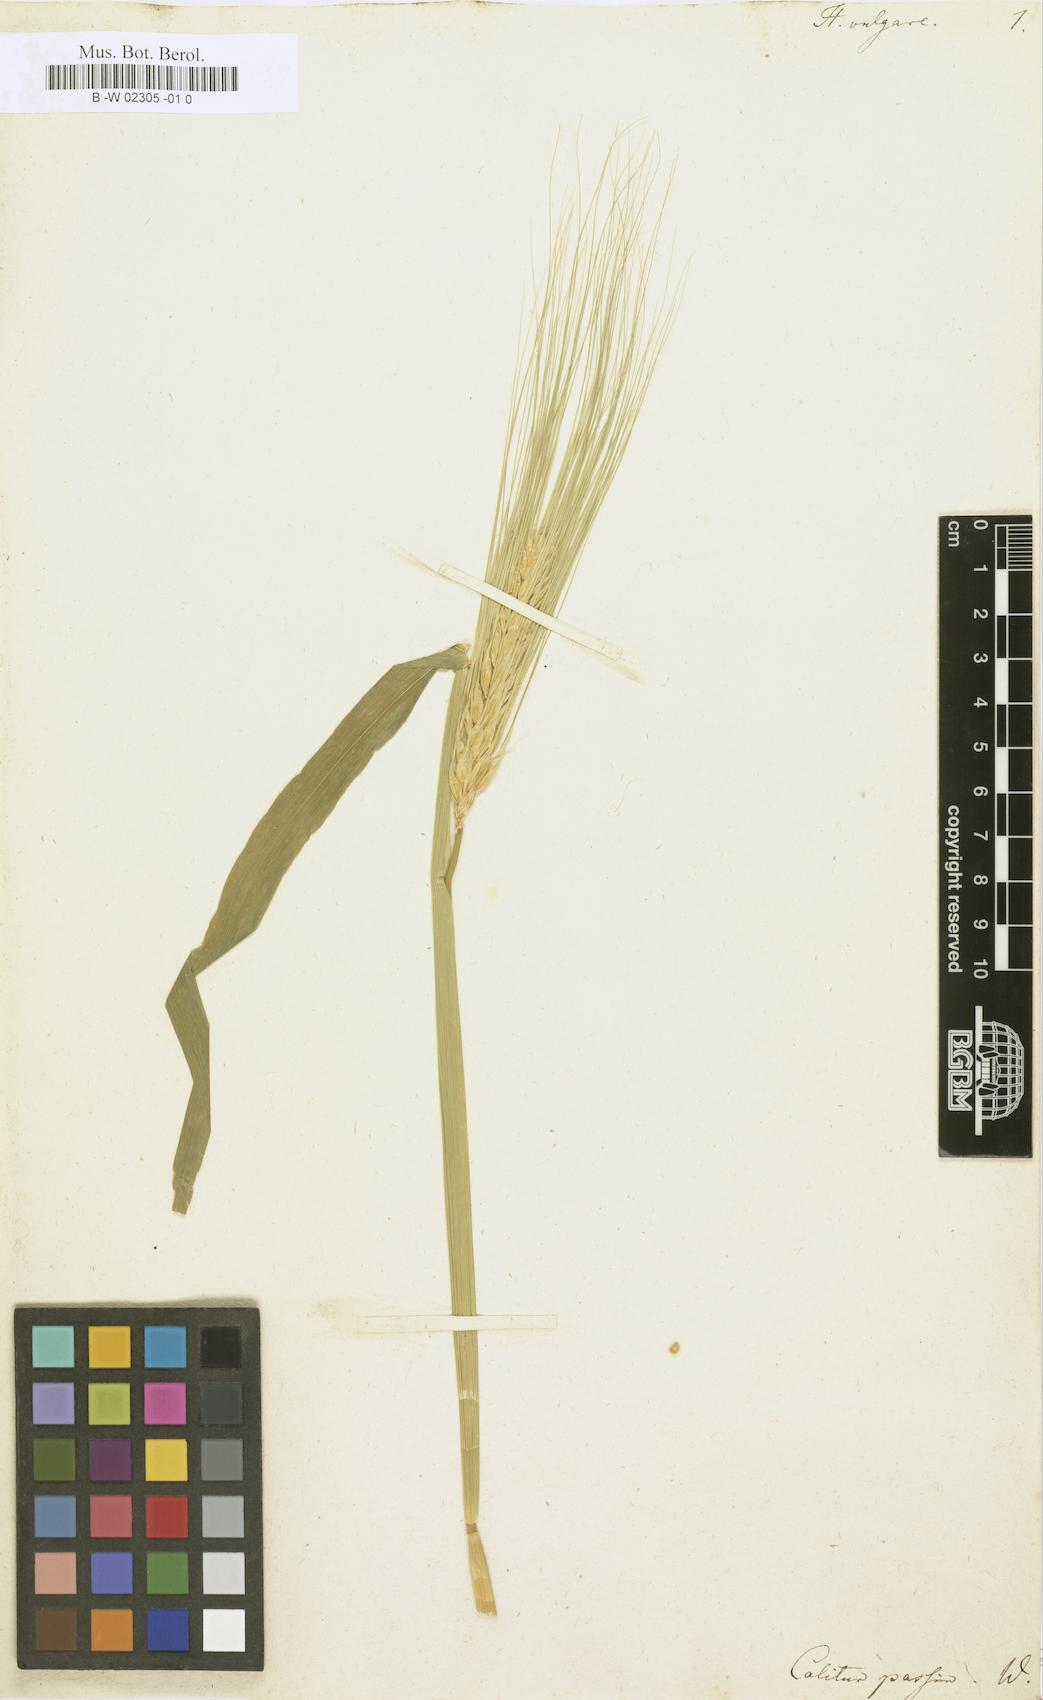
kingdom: Plantae
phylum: Tracheophyta
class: Liliopsida
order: Poales
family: Poaceae
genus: Hordeum
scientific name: Hordeum vulgare
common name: Common barley
